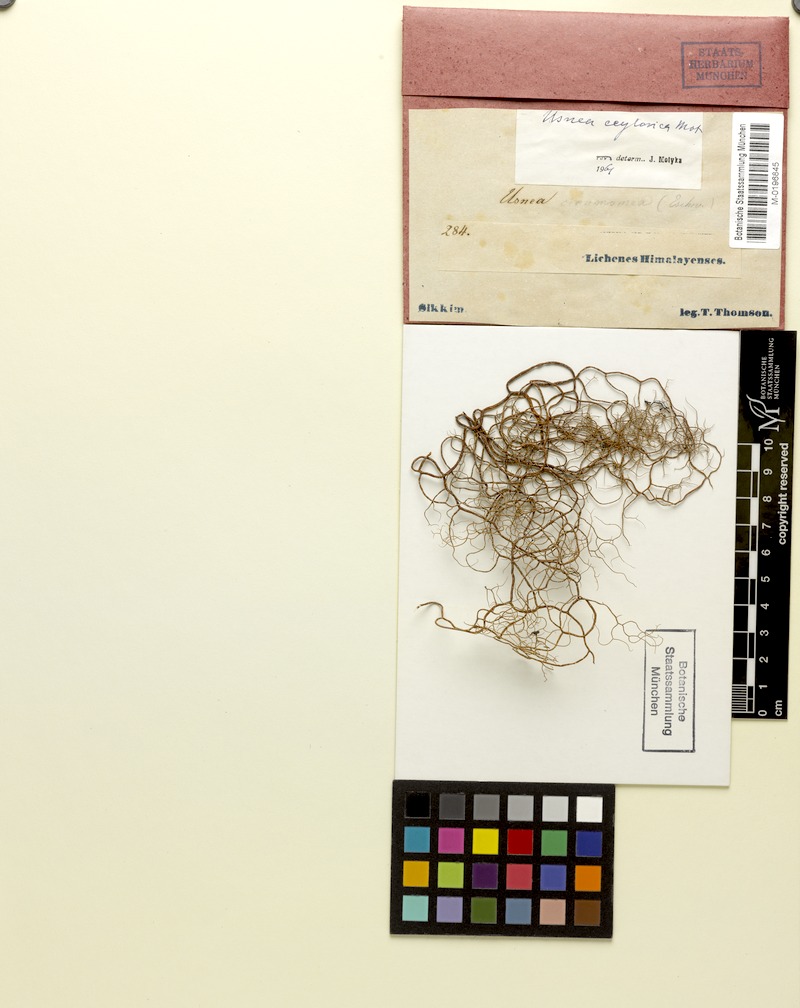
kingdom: Fungi
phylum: Ascomycota
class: Lecanoromycetes
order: Lecanorales
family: Parmeliaceae
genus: Usnea
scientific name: Usnea
